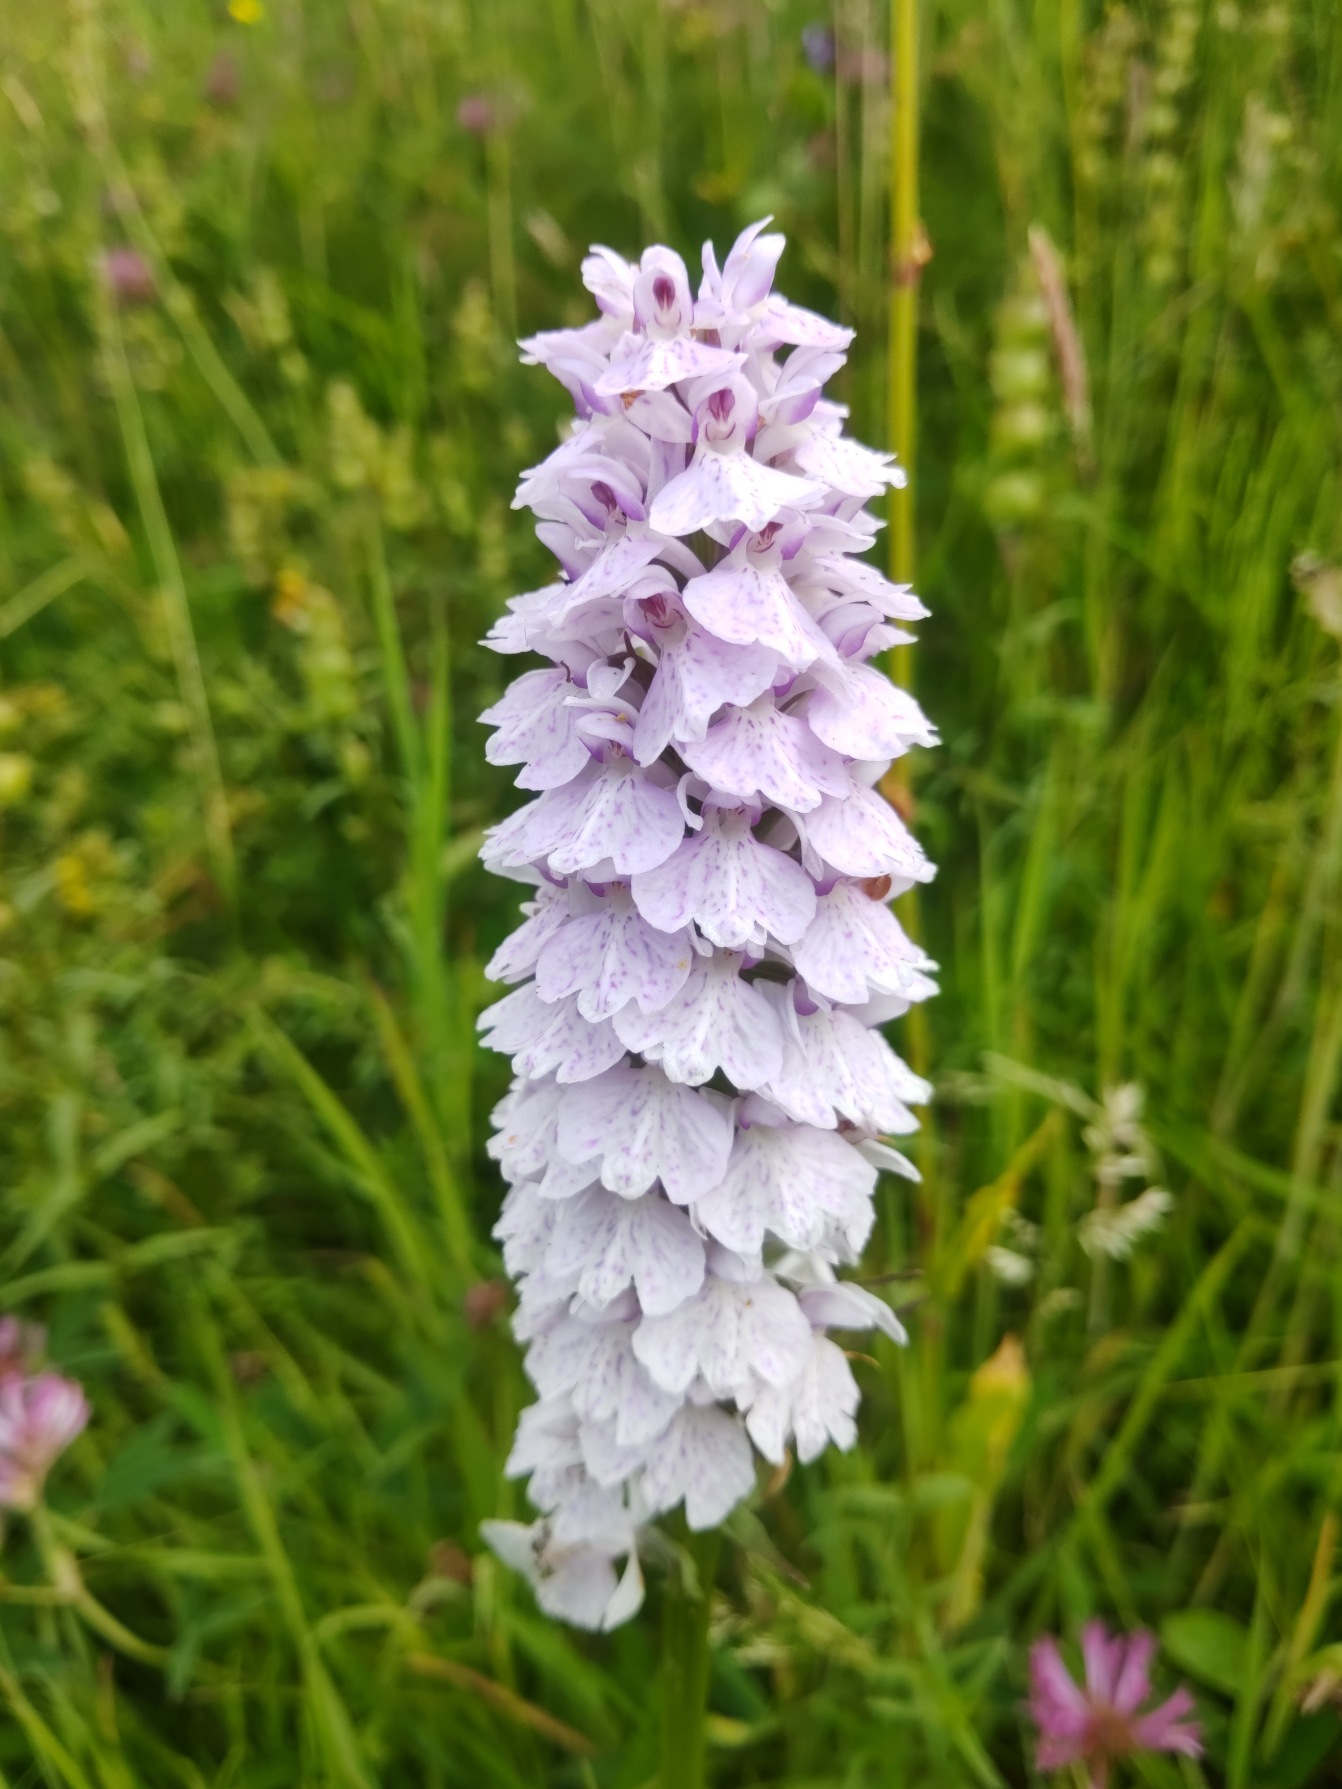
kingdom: Plantae
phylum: Tracheophyta
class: Liliopsida
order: Asparagales
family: Orchidaceae
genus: Dactylorhiza
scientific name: Dactylorhiza maculata
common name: Plettet gøgeurt
